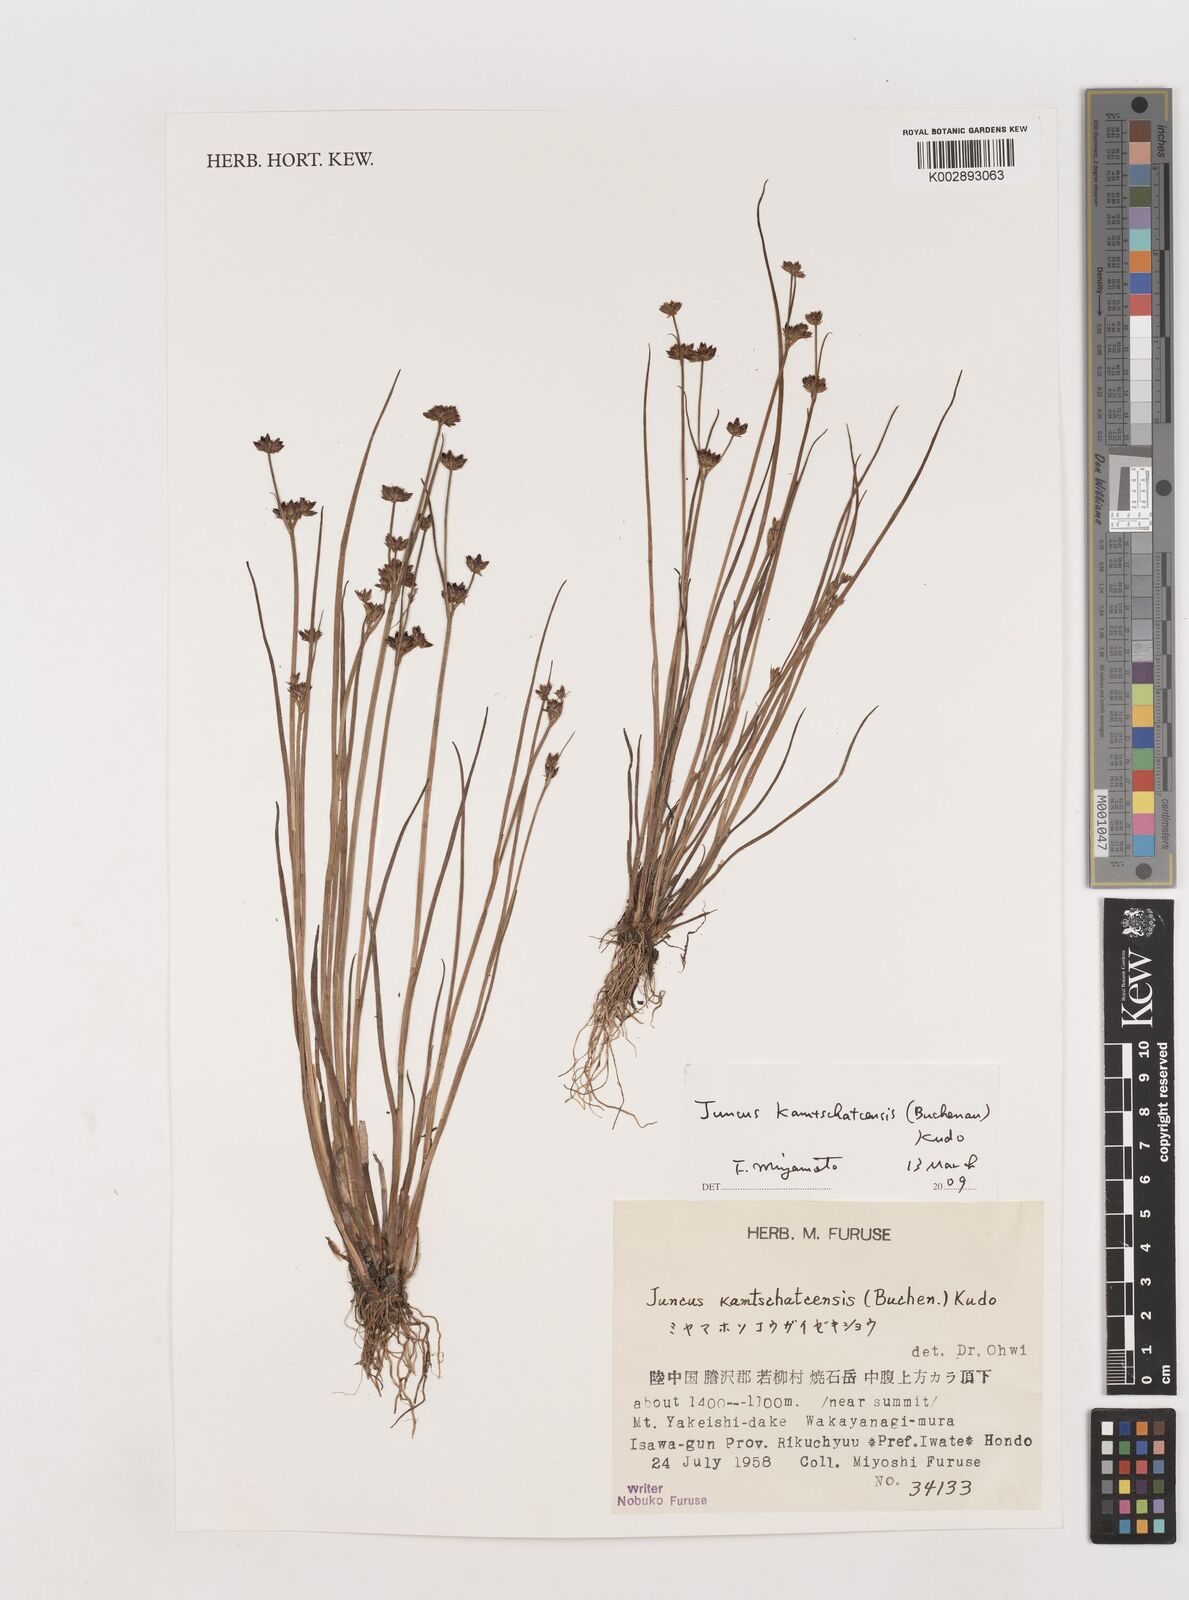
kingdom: Plantae
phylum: Tracheophyta
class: Liliopsida
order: Poales
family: Juncaceae
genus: Juncus
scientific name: Juncus fauriensis
